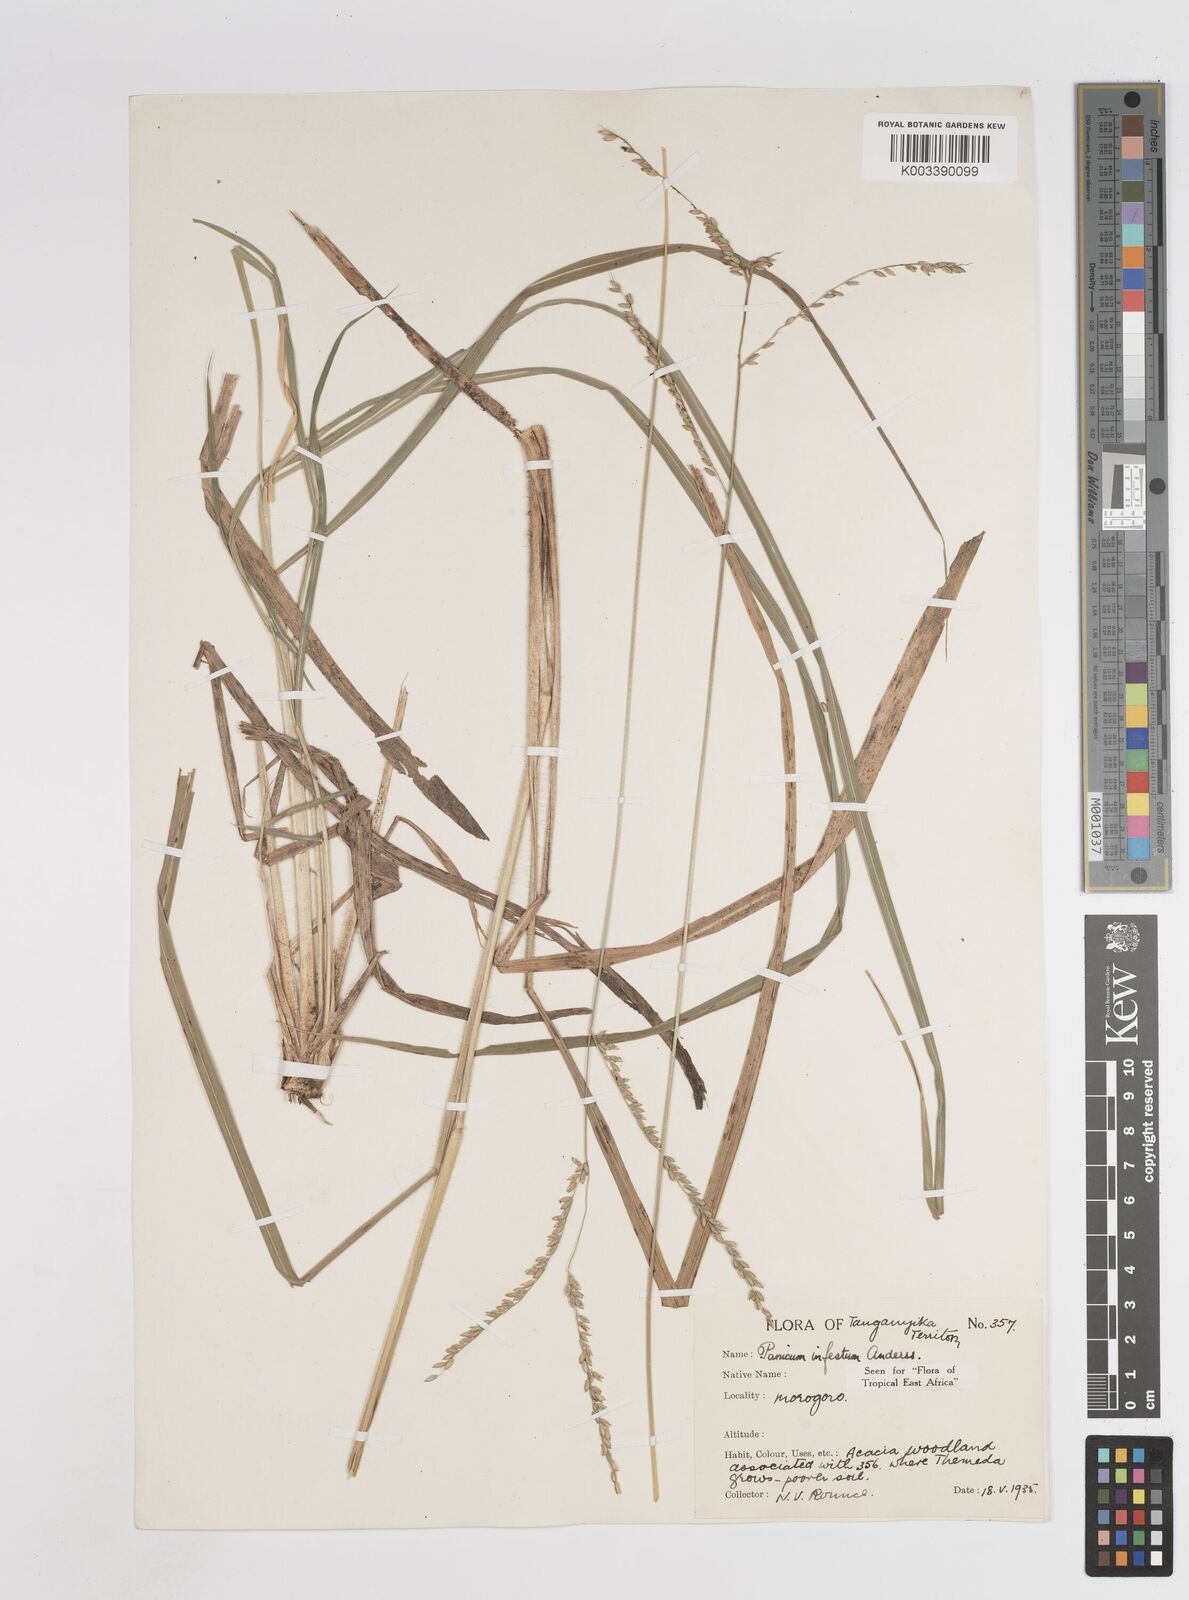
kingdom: Plantae
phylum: Tracheophyta
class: Liliopsida
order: Poales
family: Poaceae
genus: Megathyrsus
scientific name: Megathyrsus infestus
